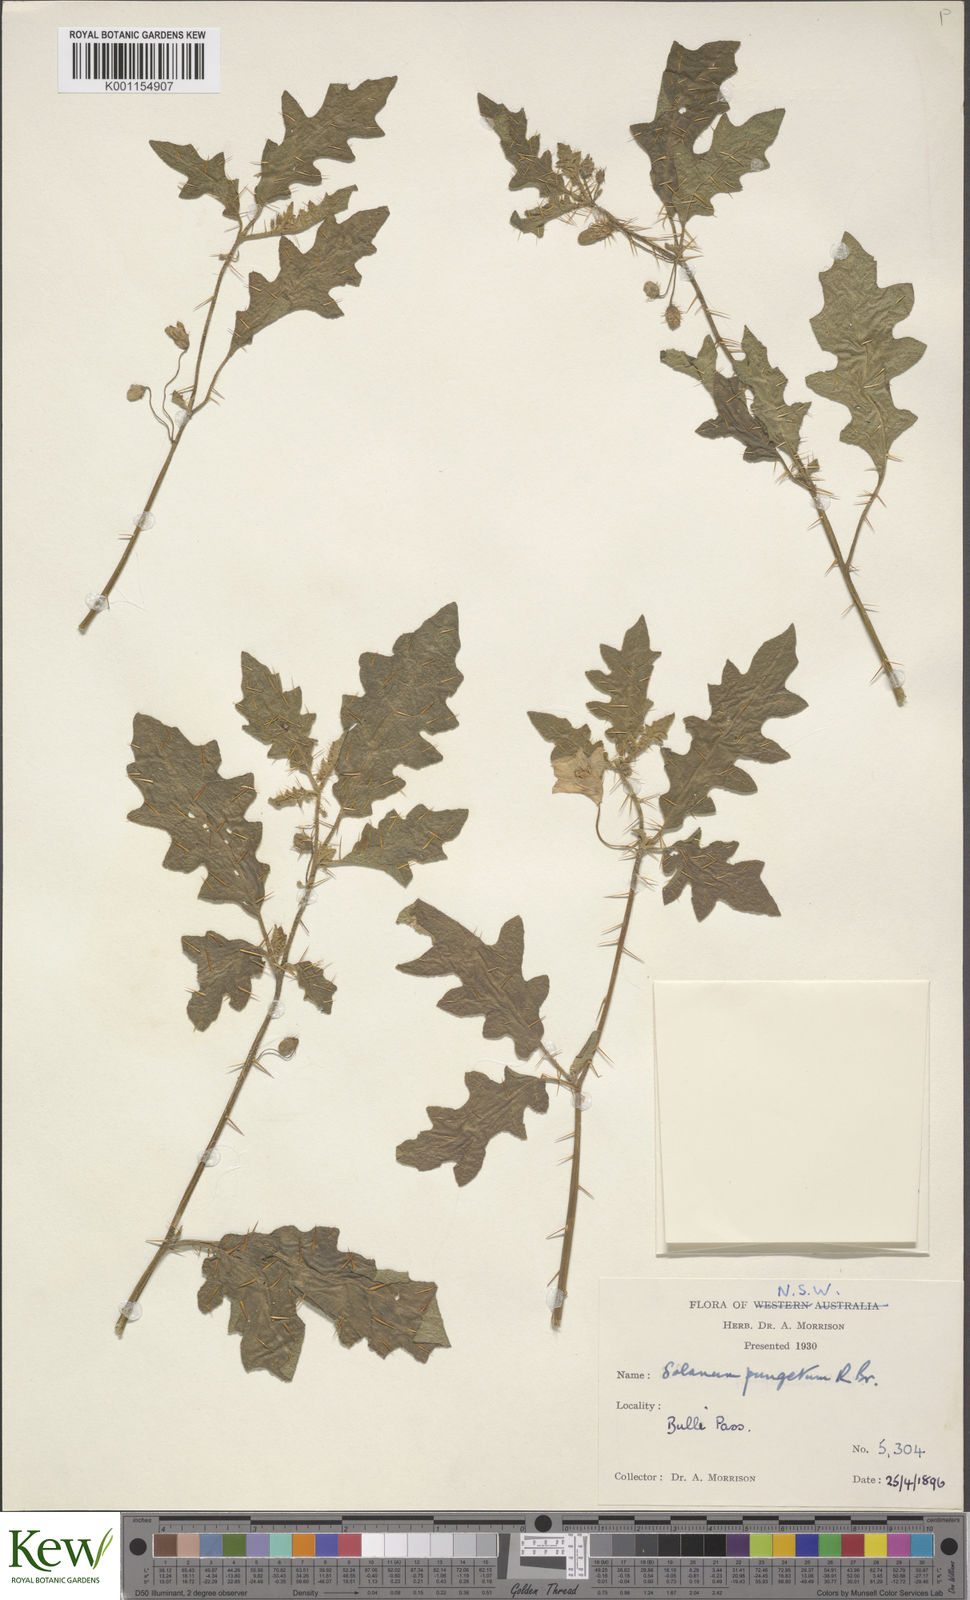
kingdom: Plantae
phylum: Tracheophyta
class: Magnoliopsida
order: Solanales
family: Solanaceae
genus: Solanum
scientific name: Solanum pungetium
